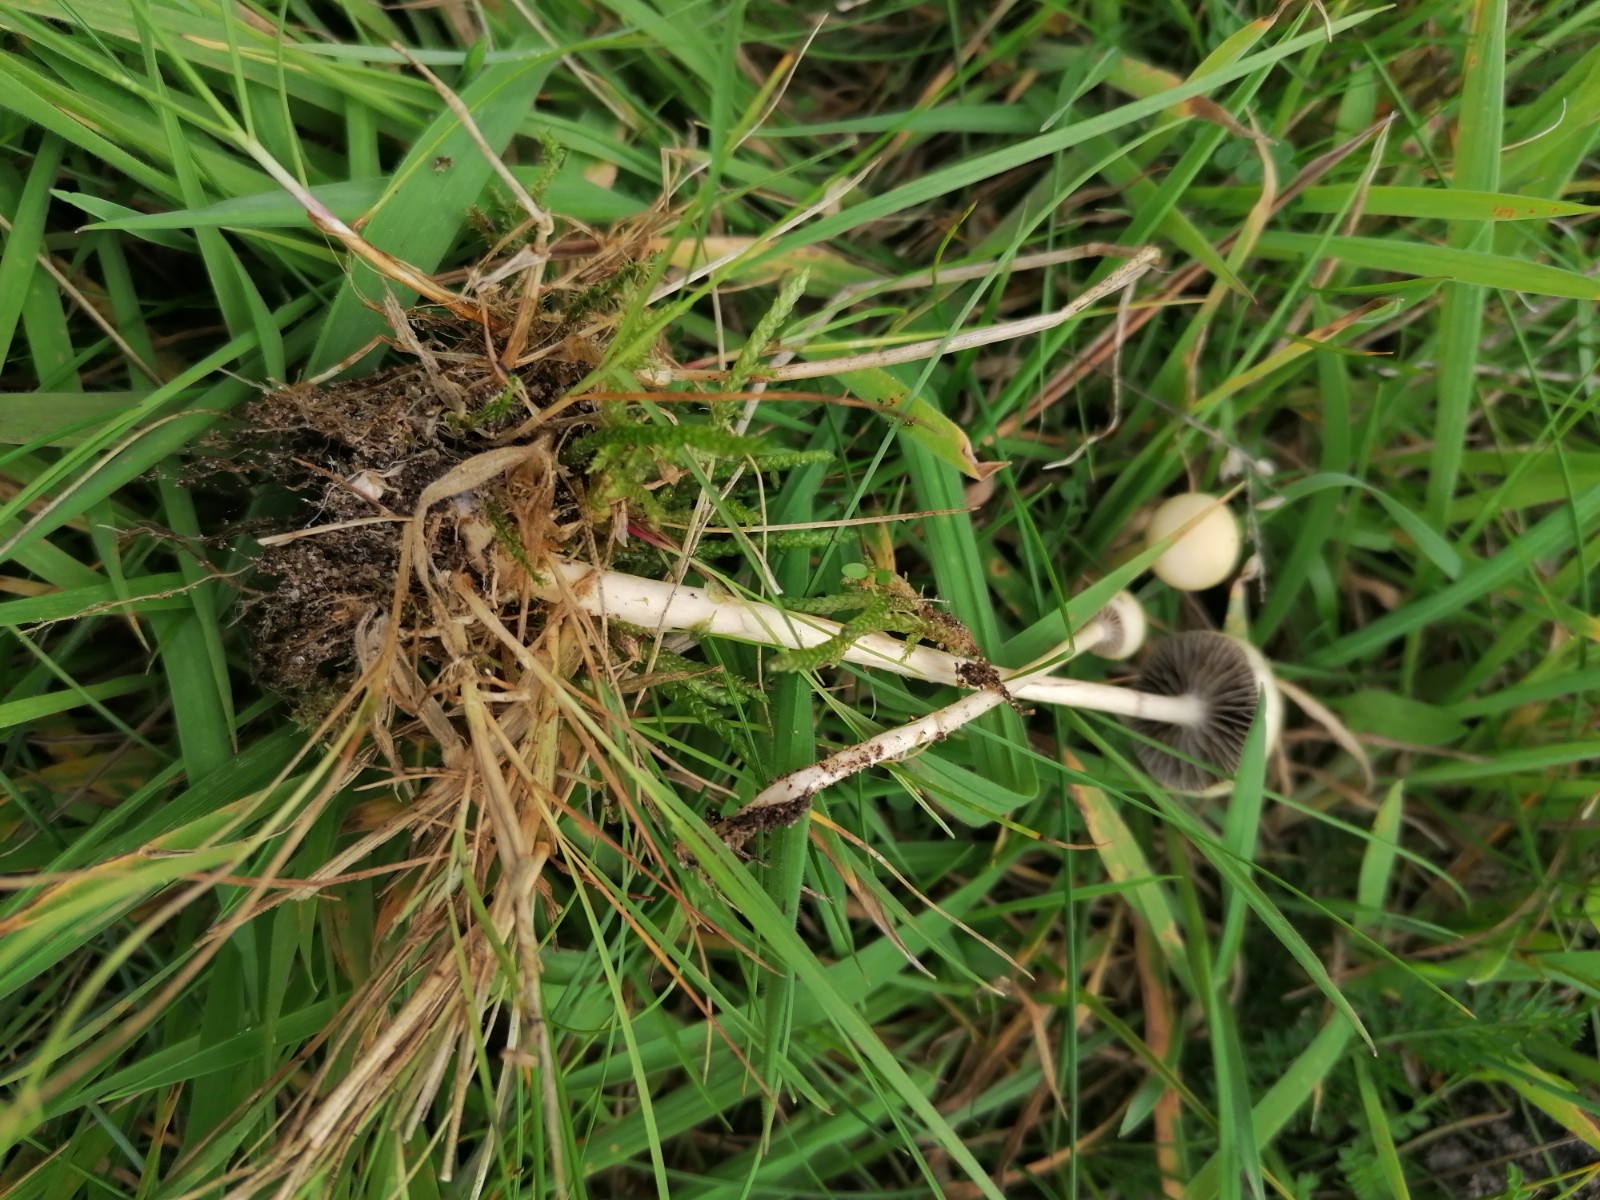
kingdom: Fungi
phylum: Basidiomycota
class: Agaricomycetes
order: Agaricales
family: Strophariaceae
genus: Protostropharia
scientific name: Protostropharia semiglobata
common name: halvkugleformet bredblad
